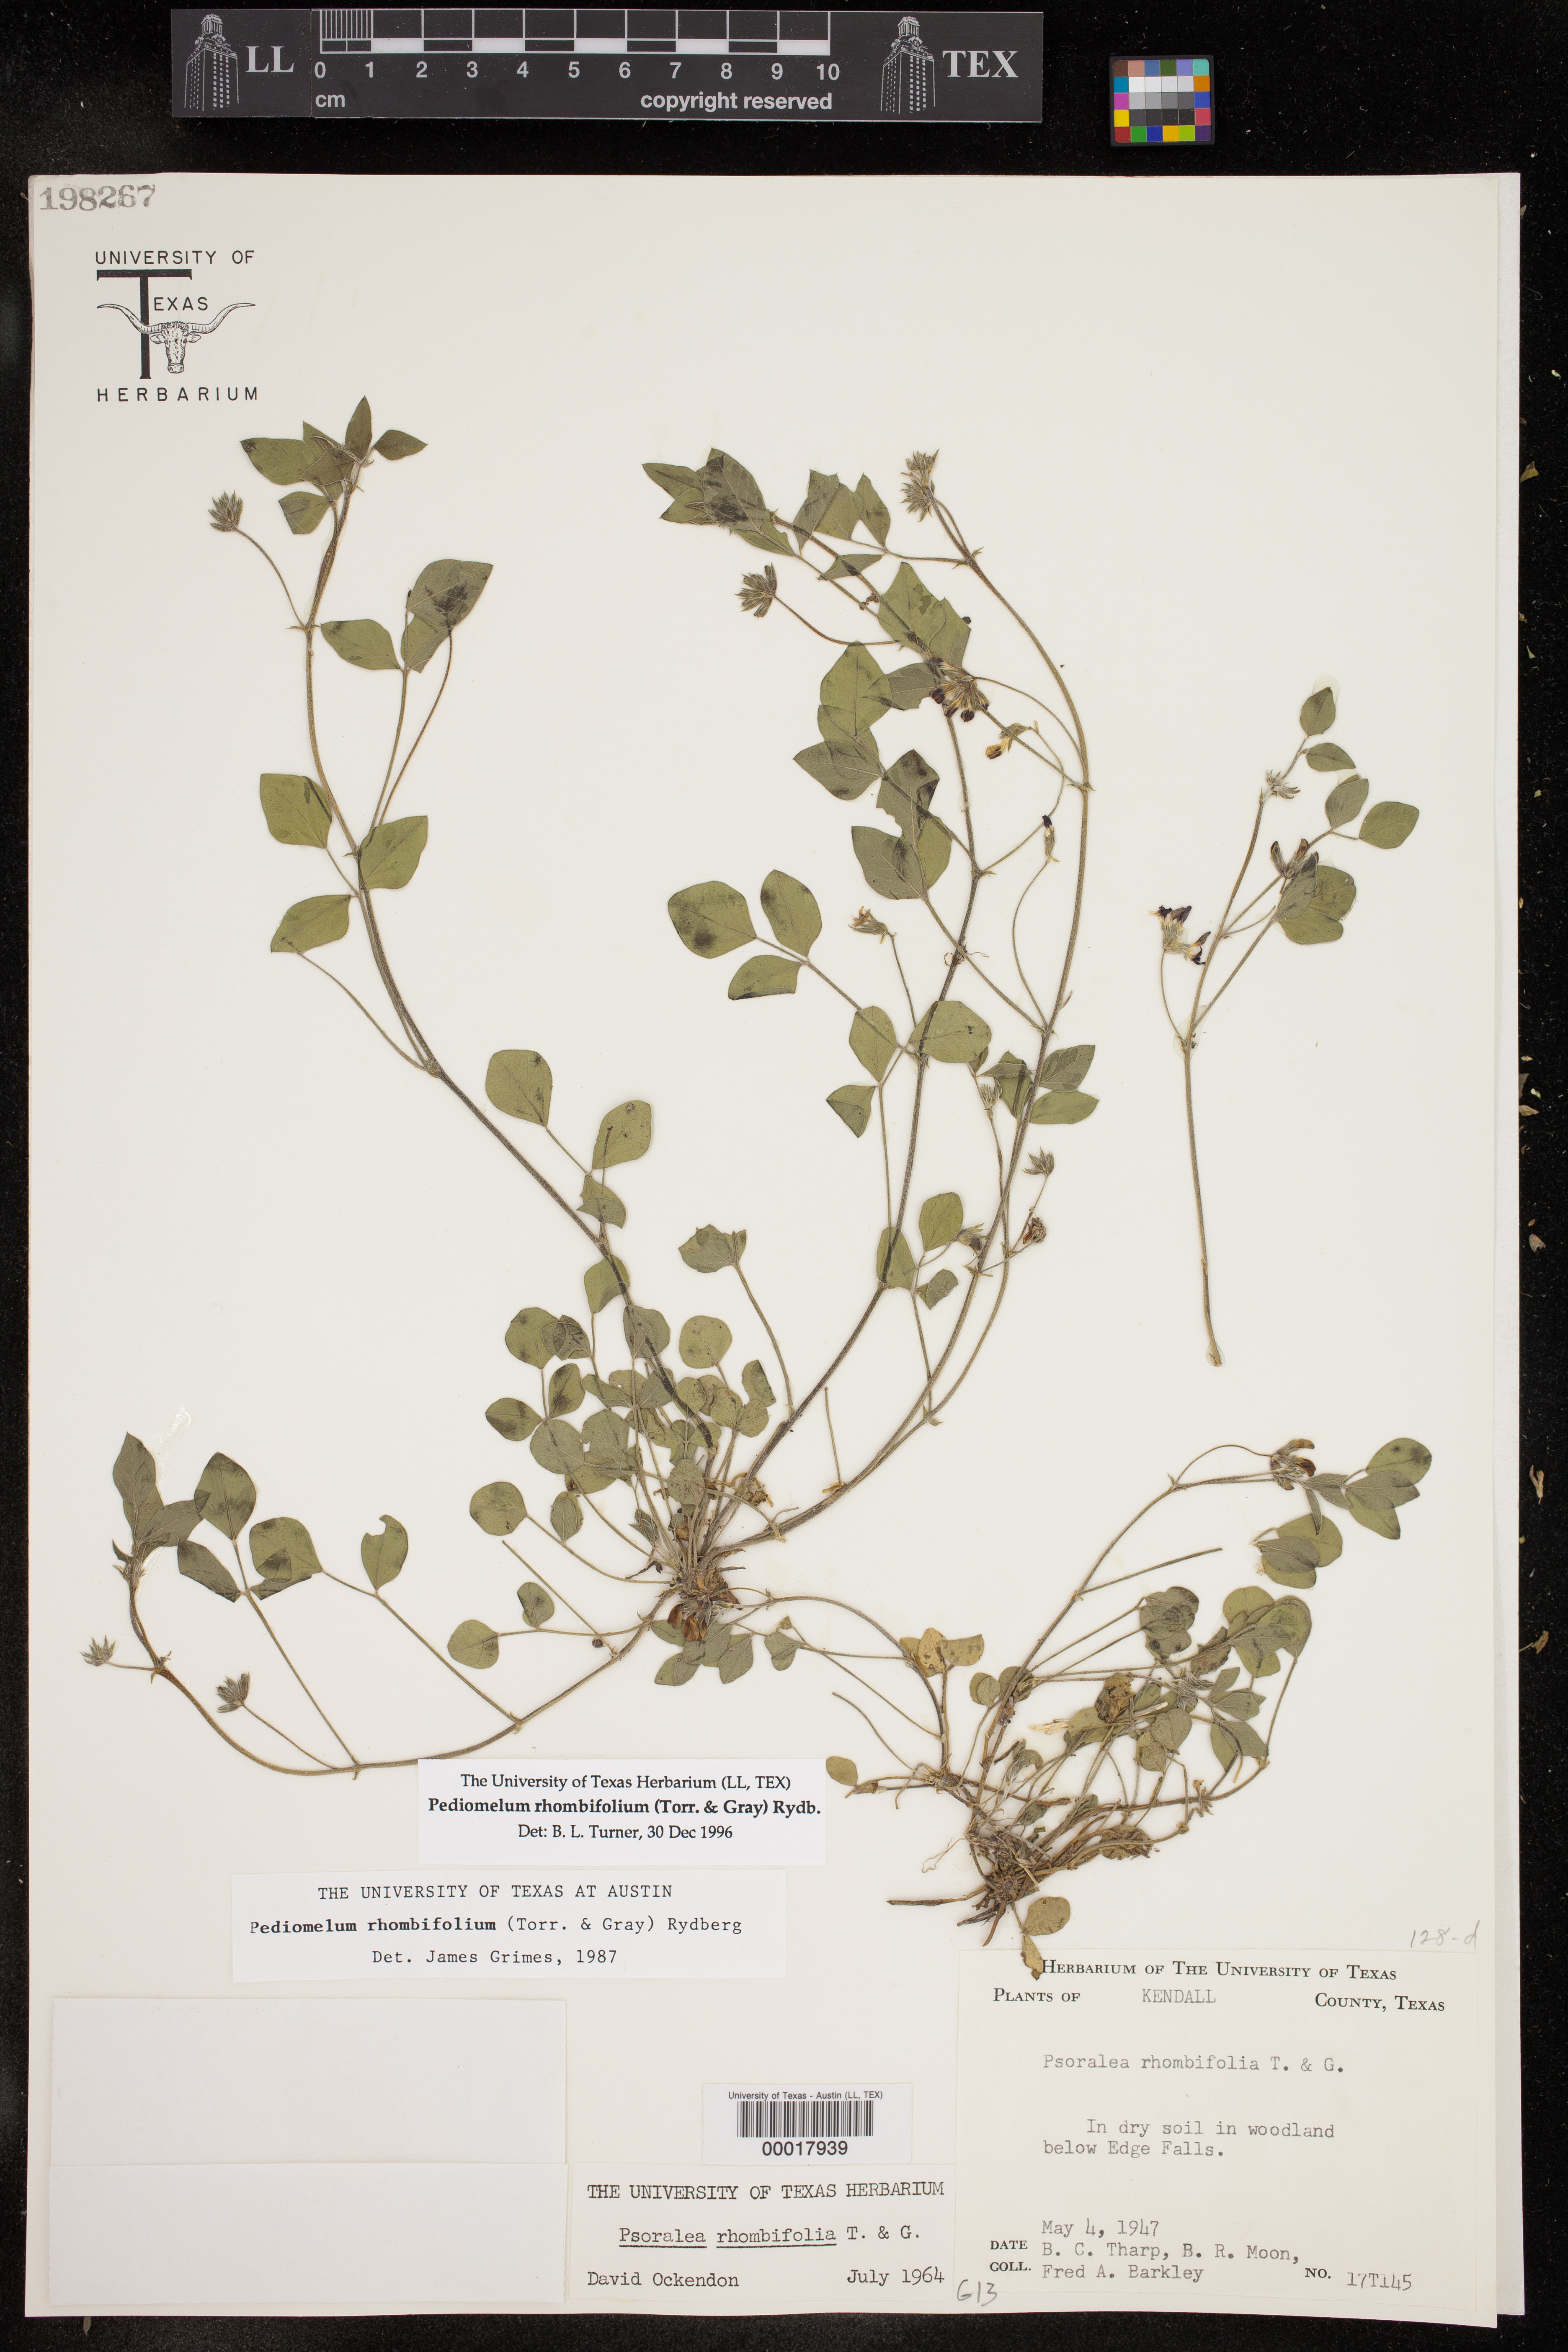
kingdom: Plantae
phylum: Tracheophyta
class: Magnoliopsida
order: Fabales
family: Fabaceae
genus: Pediomelum
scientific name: Pediomelum rhombifolium
